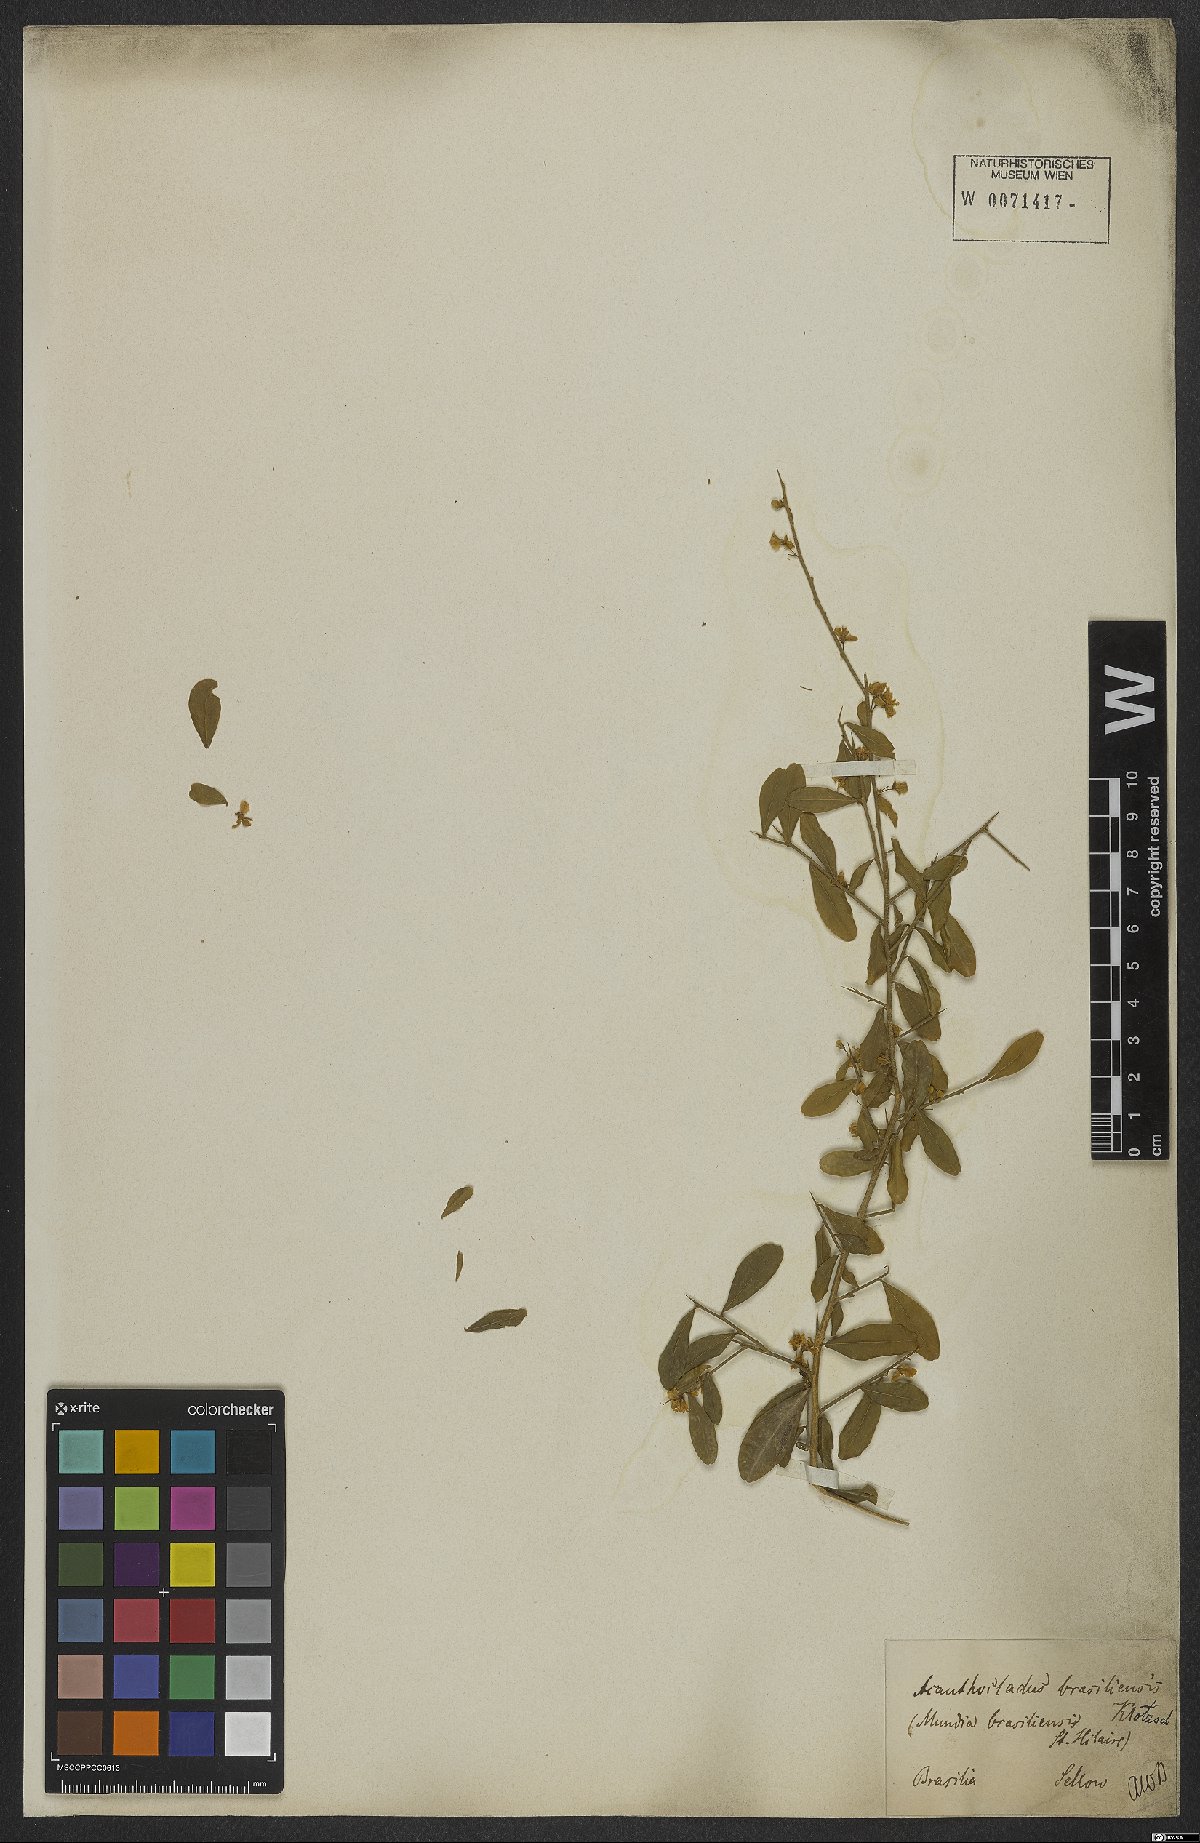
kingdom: Plantae
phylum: Tracheophyta
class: Magnoliopsida
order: Fabales
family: Polygalaceae
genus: Acanthocladus
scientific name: Acanthocladus brasiliensis
